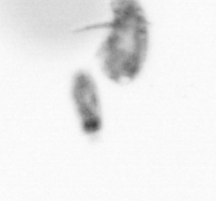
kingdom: Animalia
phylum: Annelida
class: Polychaeta
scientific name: Polychaeta
